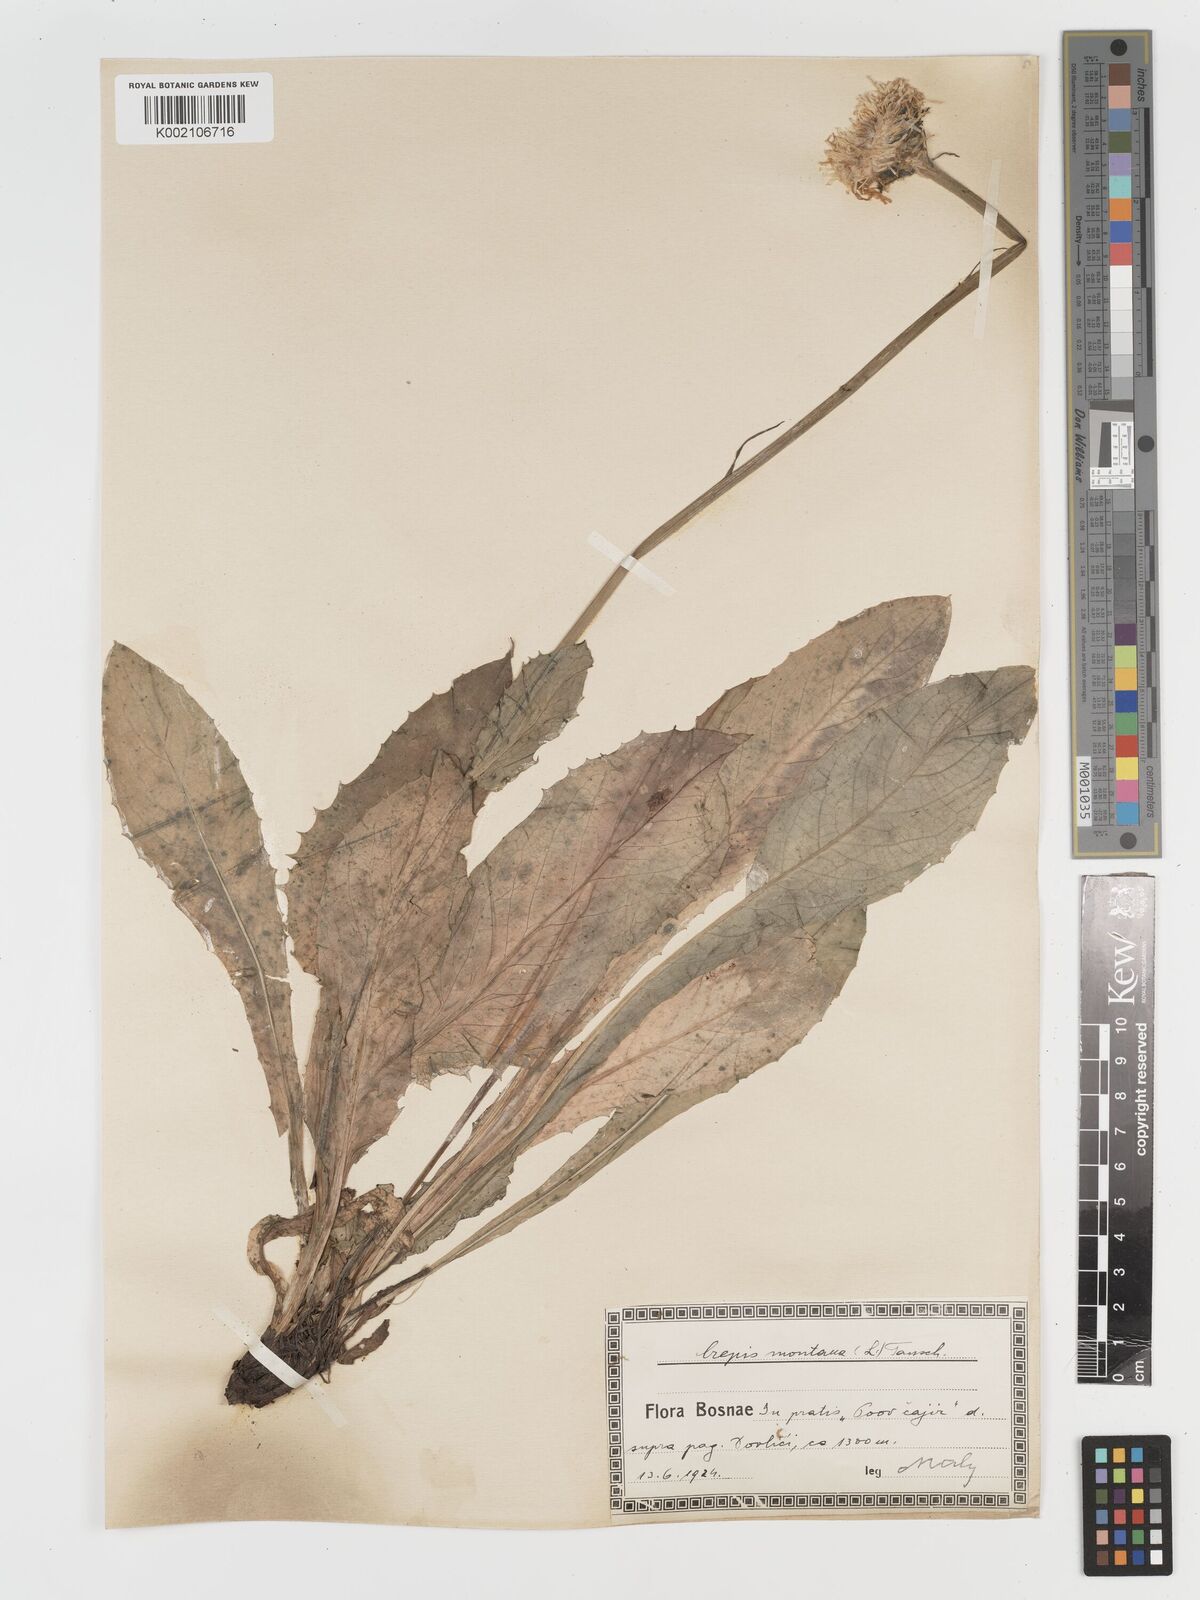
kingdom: Plantae
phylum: Tracheophyta
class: Magnoliopsida
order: Asterales
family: Asteraceae
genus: Crepis
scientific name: Crepis pontana
